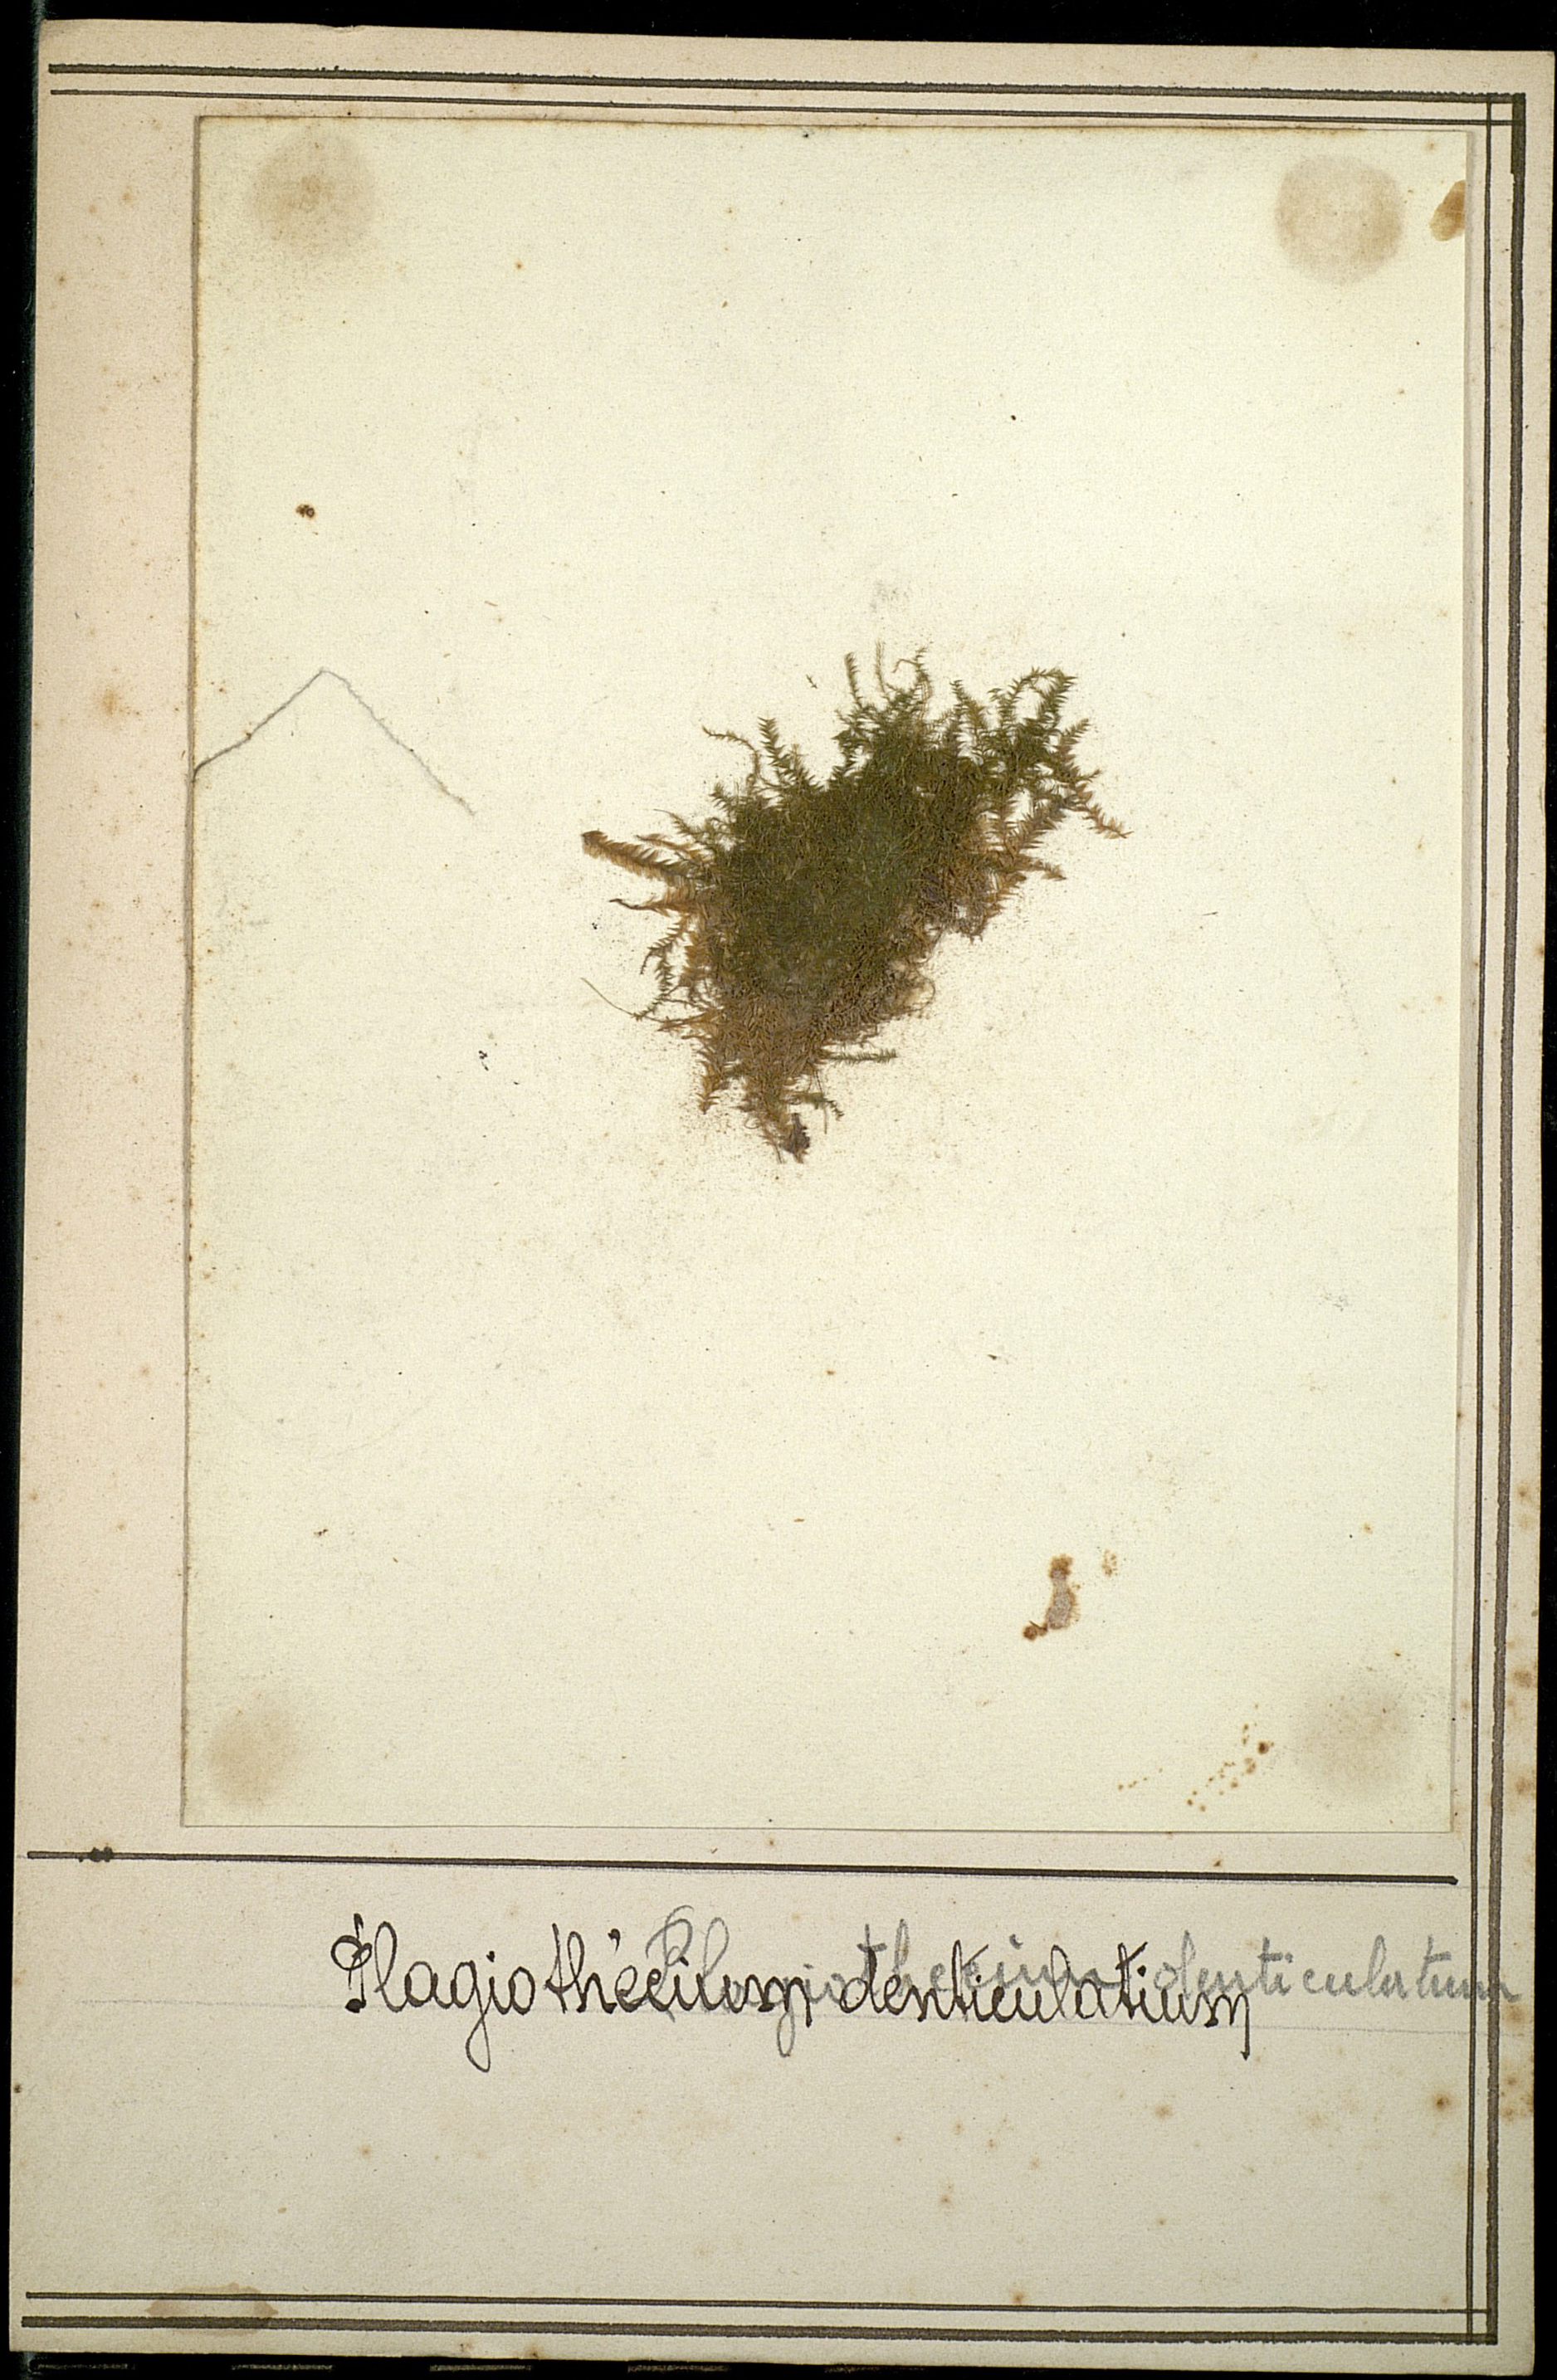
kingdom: Plantae
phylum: Bryophyta
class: Bryopsida
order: Hypnales
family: Plagiotheciaceae
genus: Plagiothecium
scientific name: Plagiothecium denticulatum
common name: Dented silk moss
